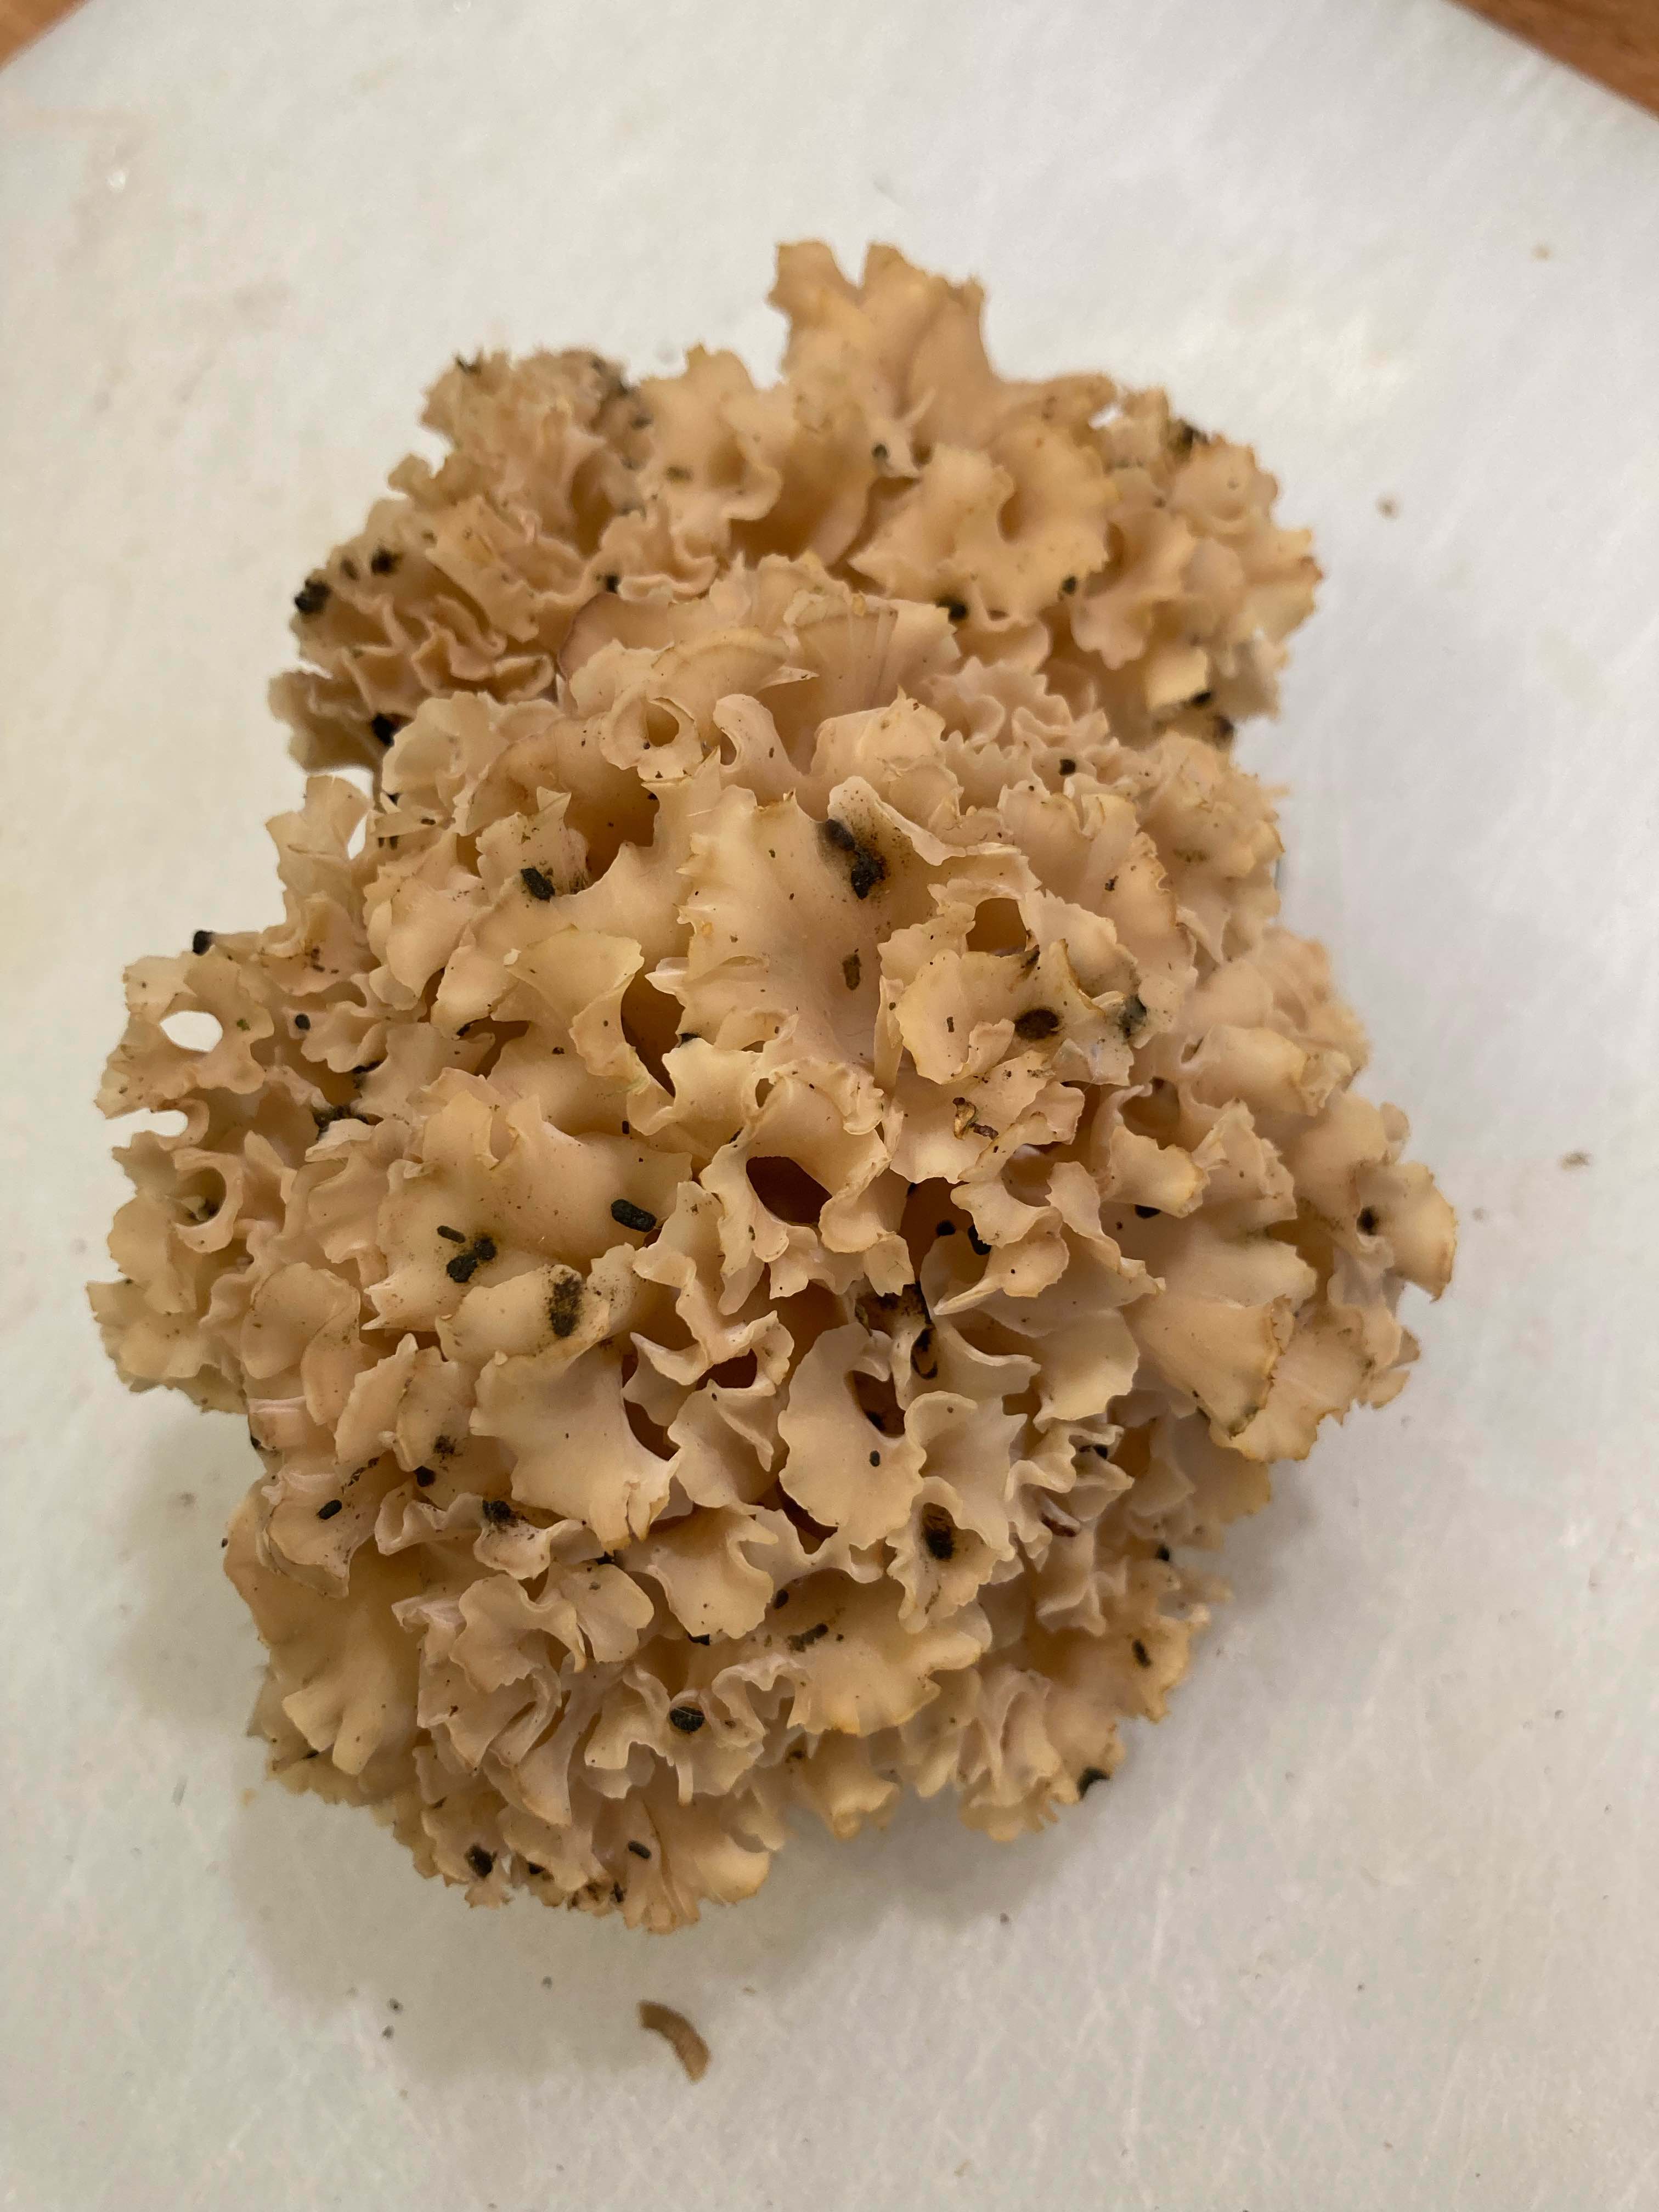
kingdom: Fungi
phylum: Basidiomycota
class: Agaricomycetes
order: Polyporales
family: Sparassidaceae
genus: Sparassis
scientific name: Sparassis crispa
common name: kruset blomkålssvamp
